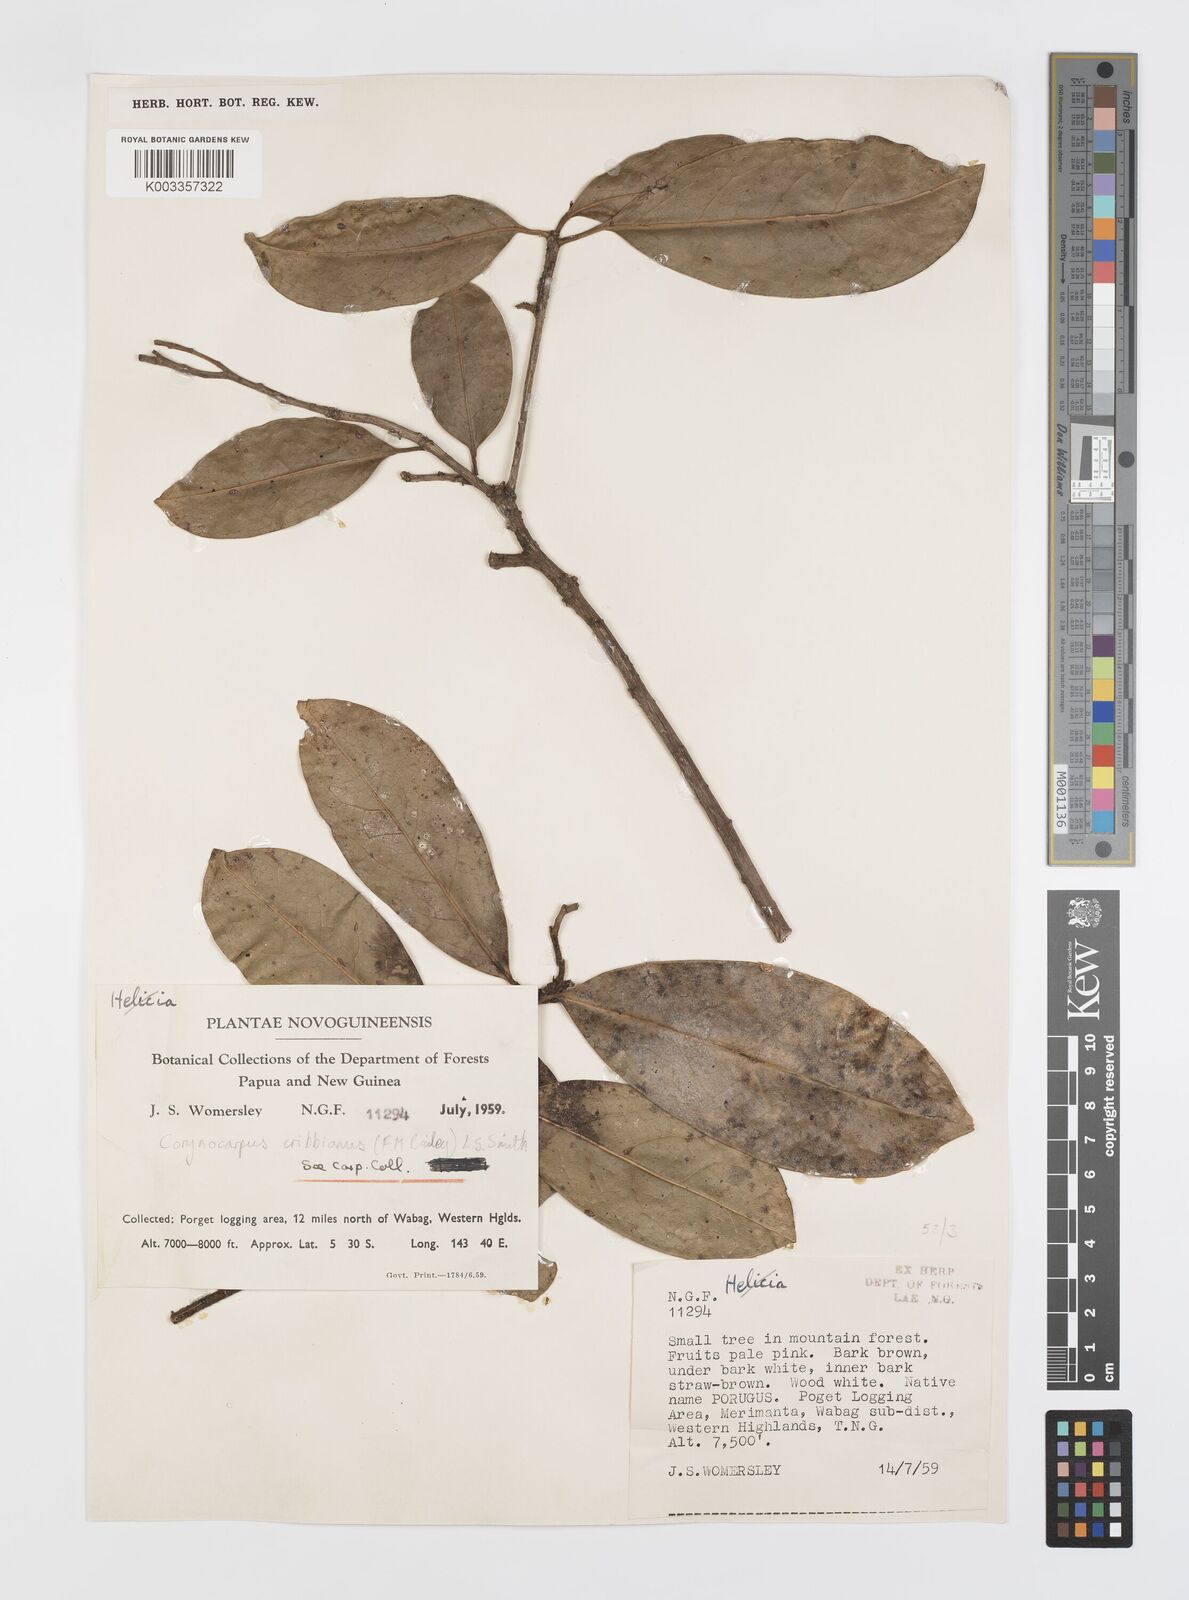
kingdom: Plantae
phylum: Tracheophyta
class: Magnoliopsida
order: Cucurbitales
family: Corynocarpaceae
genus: Corynocarpus
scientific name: Corynocarpus cribbianus
